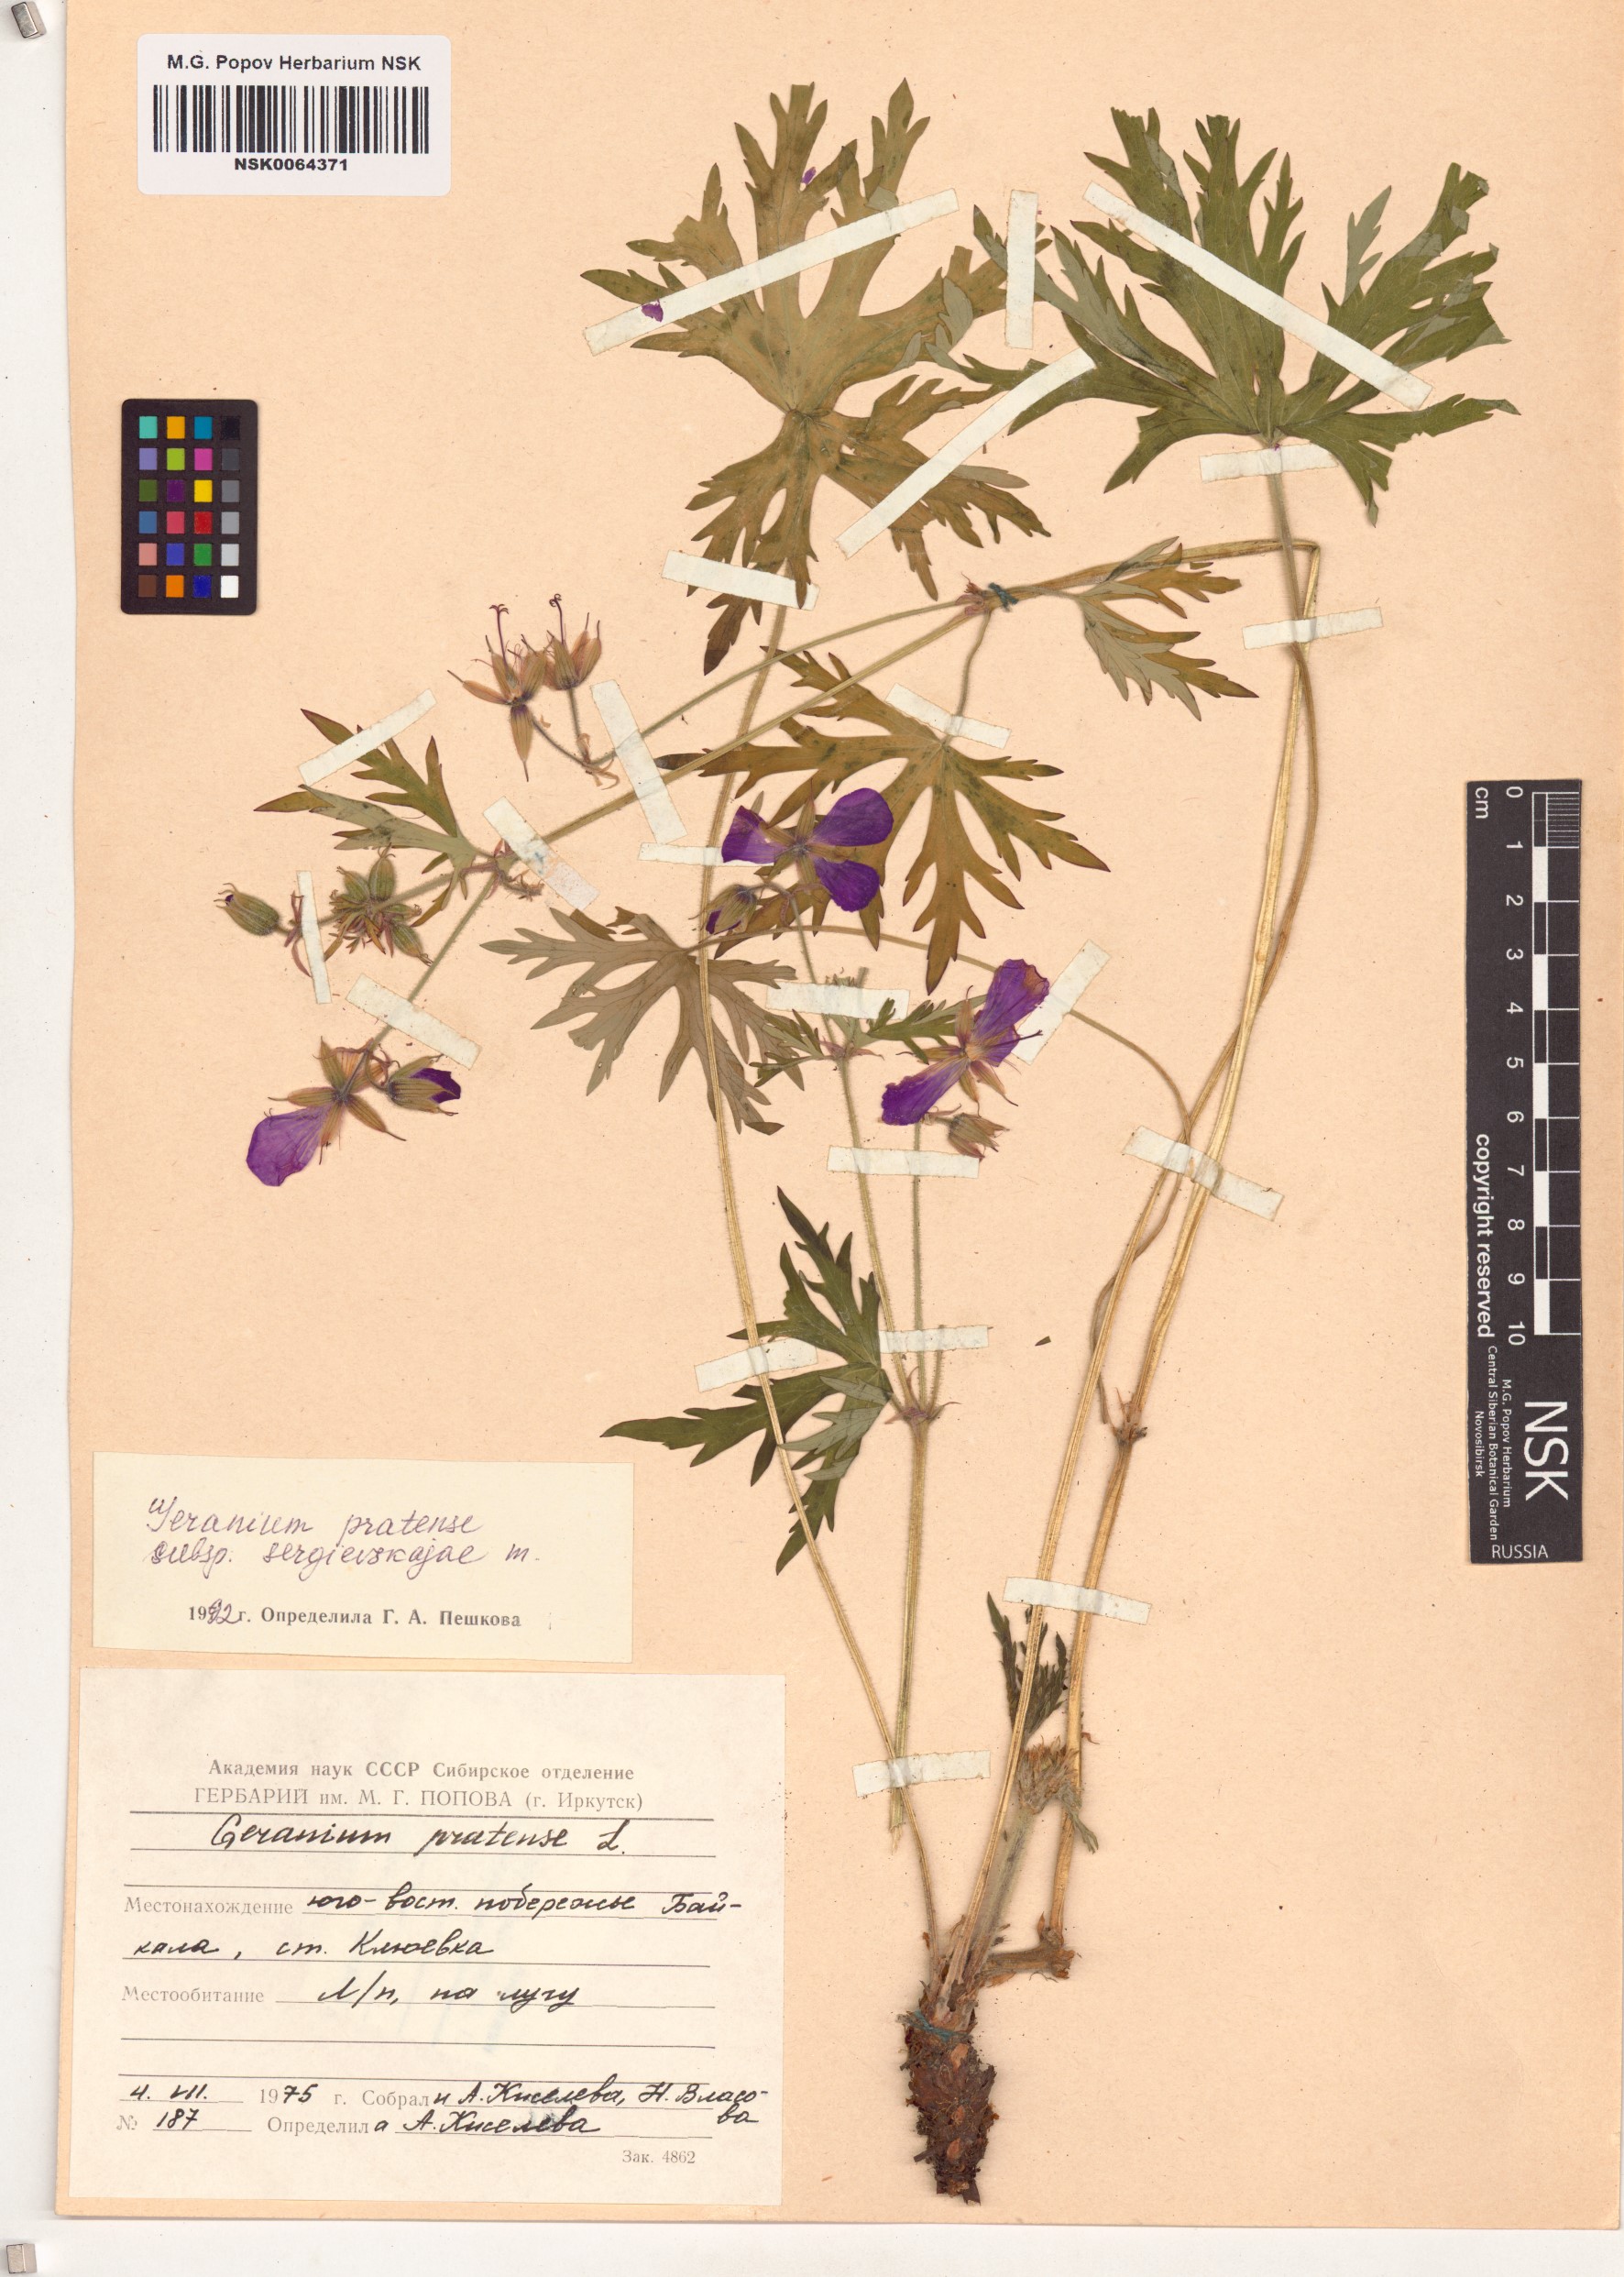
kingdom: Plantae
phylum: Tracheophyta
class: Magnoliopsida
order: Geraniales
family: Geraniaceae
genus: Geranium
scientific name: Geranium pratense
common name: Meadow crane's-bill
